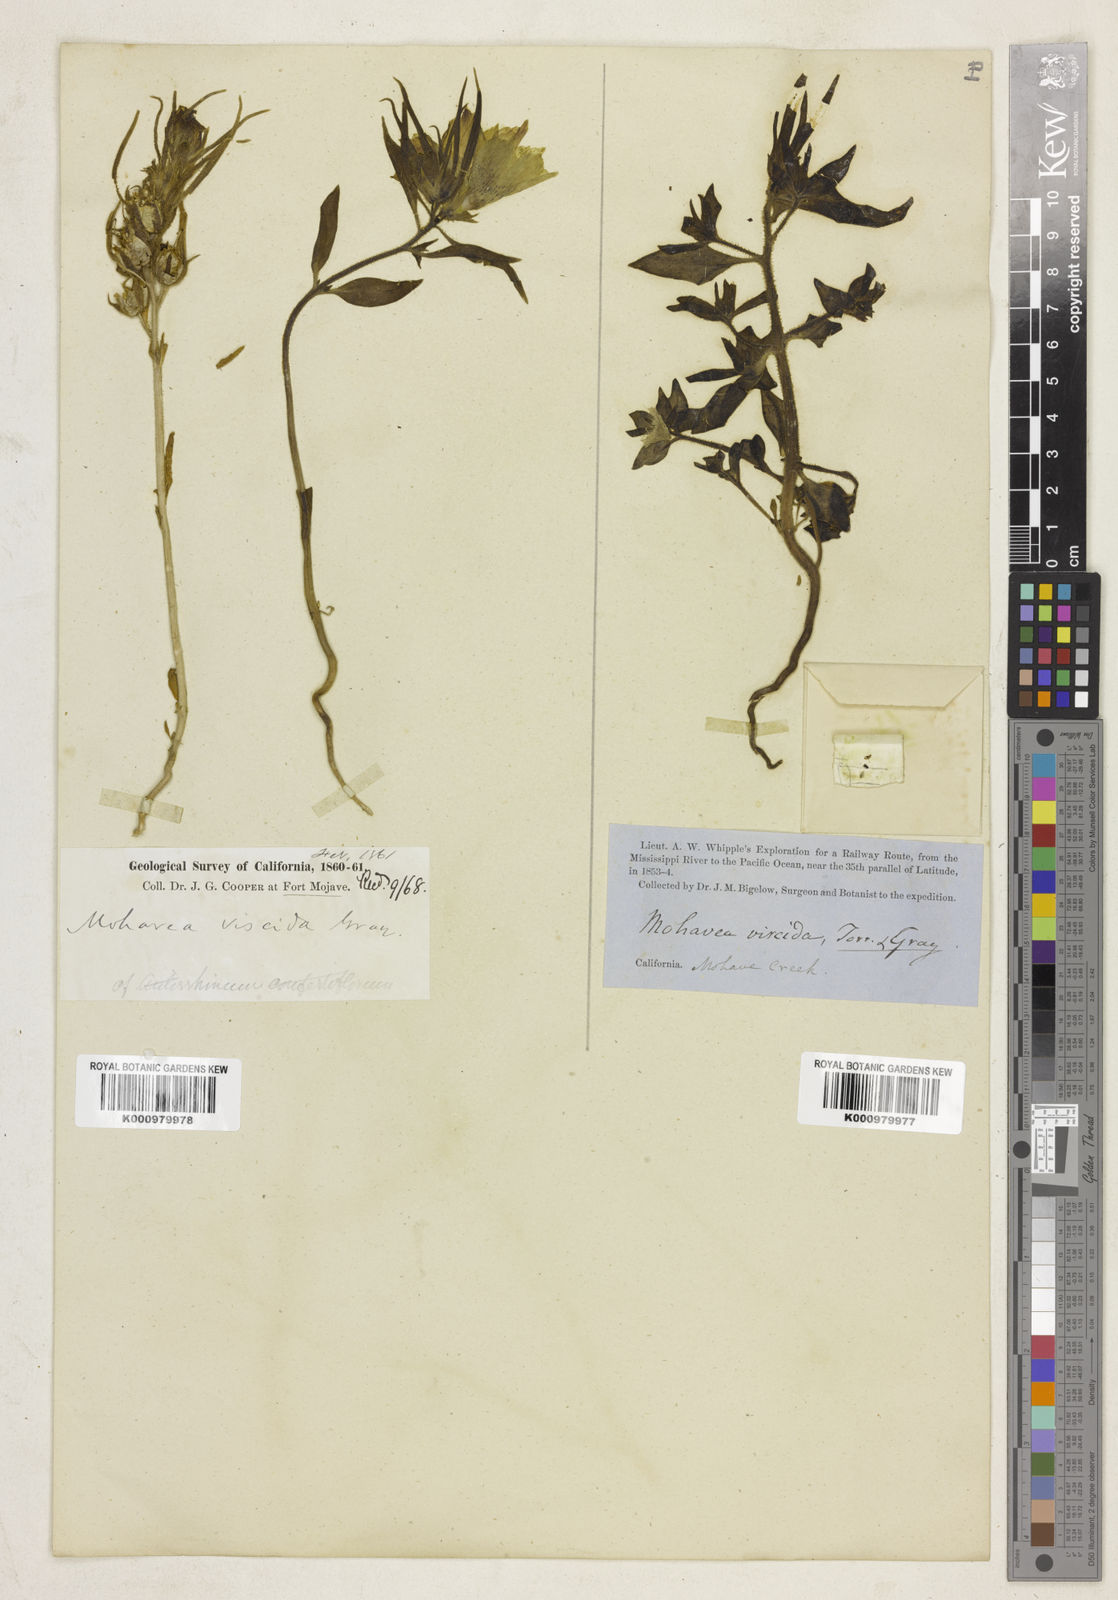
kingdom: Plantae
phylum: Tracheophyta
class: Magnoliopsida
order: Lamiales
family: Plantaginaceae
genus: Schweinfurthia
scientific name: Schweinfurthia
